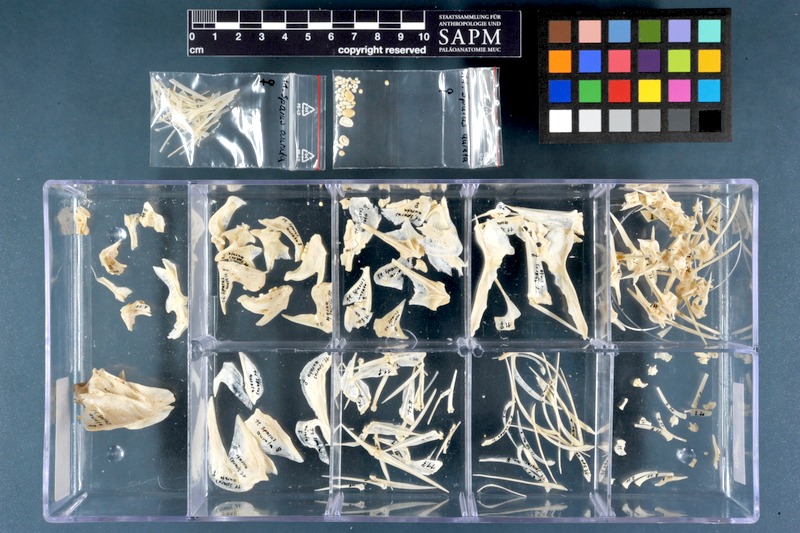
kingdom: Animalia
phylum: Chordata
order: Perciformes
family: Sparidae
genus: Sparus
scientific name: Sparus aurata
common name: Gilthead
